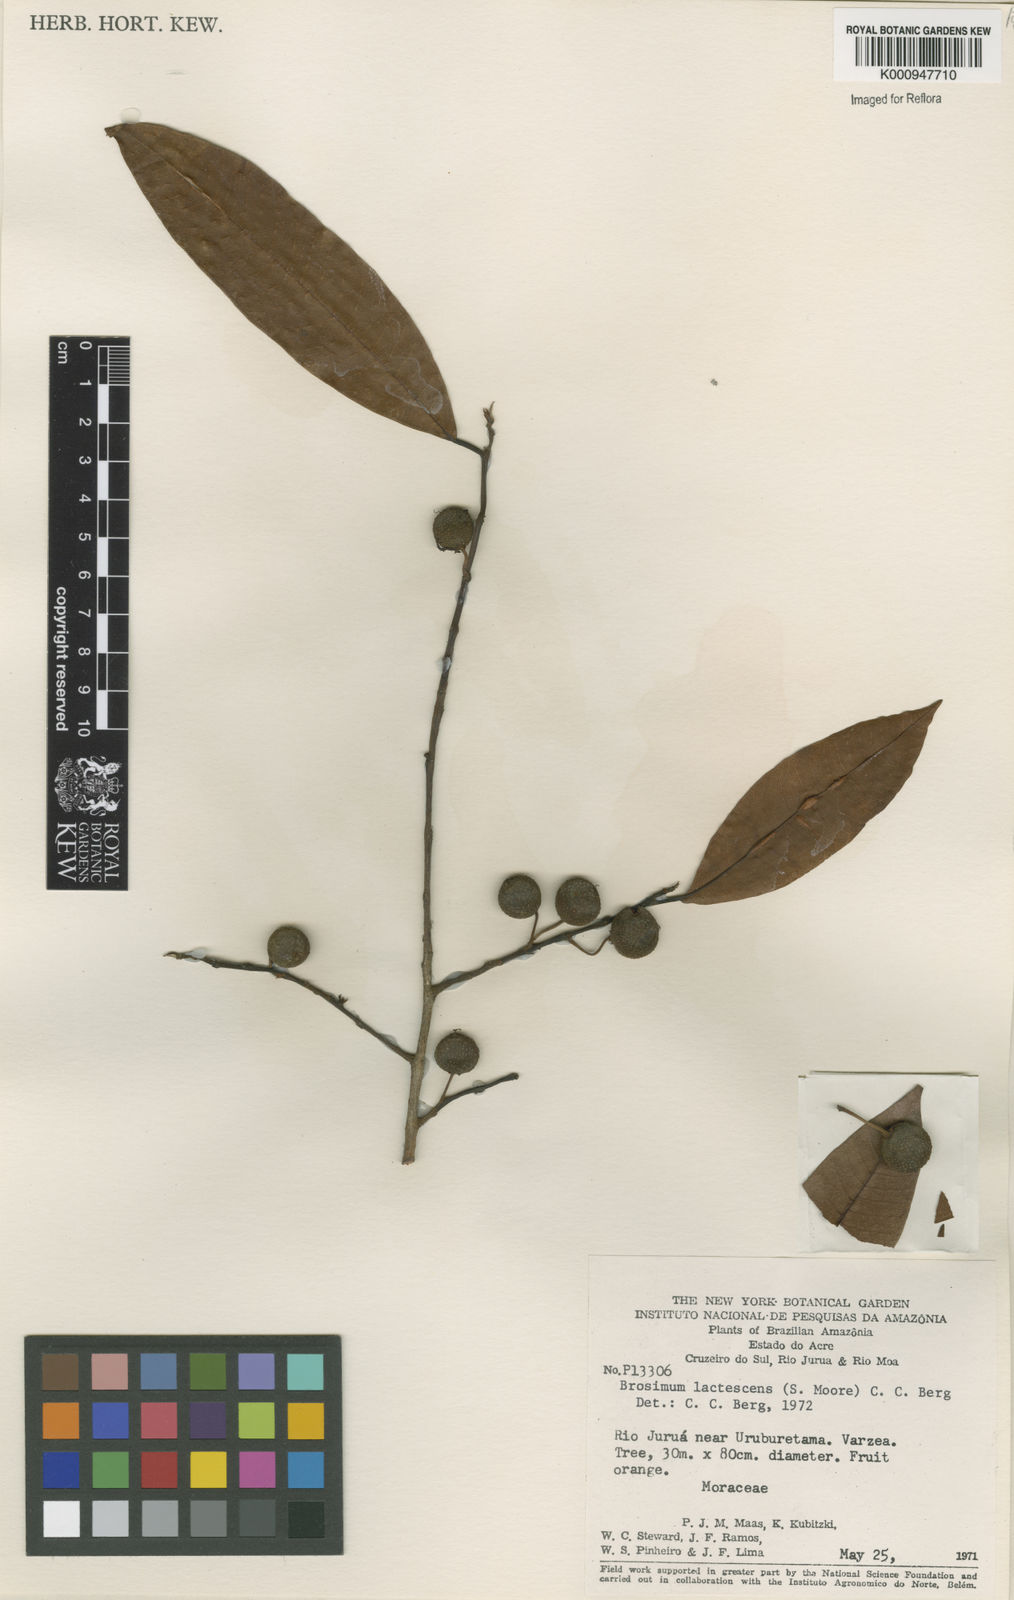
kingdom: Plantae
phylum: Tracheophyta
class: Magnoliopsida
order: Rosales
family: Moraceae
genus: Brosimum
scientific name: Brosimum lactescens
